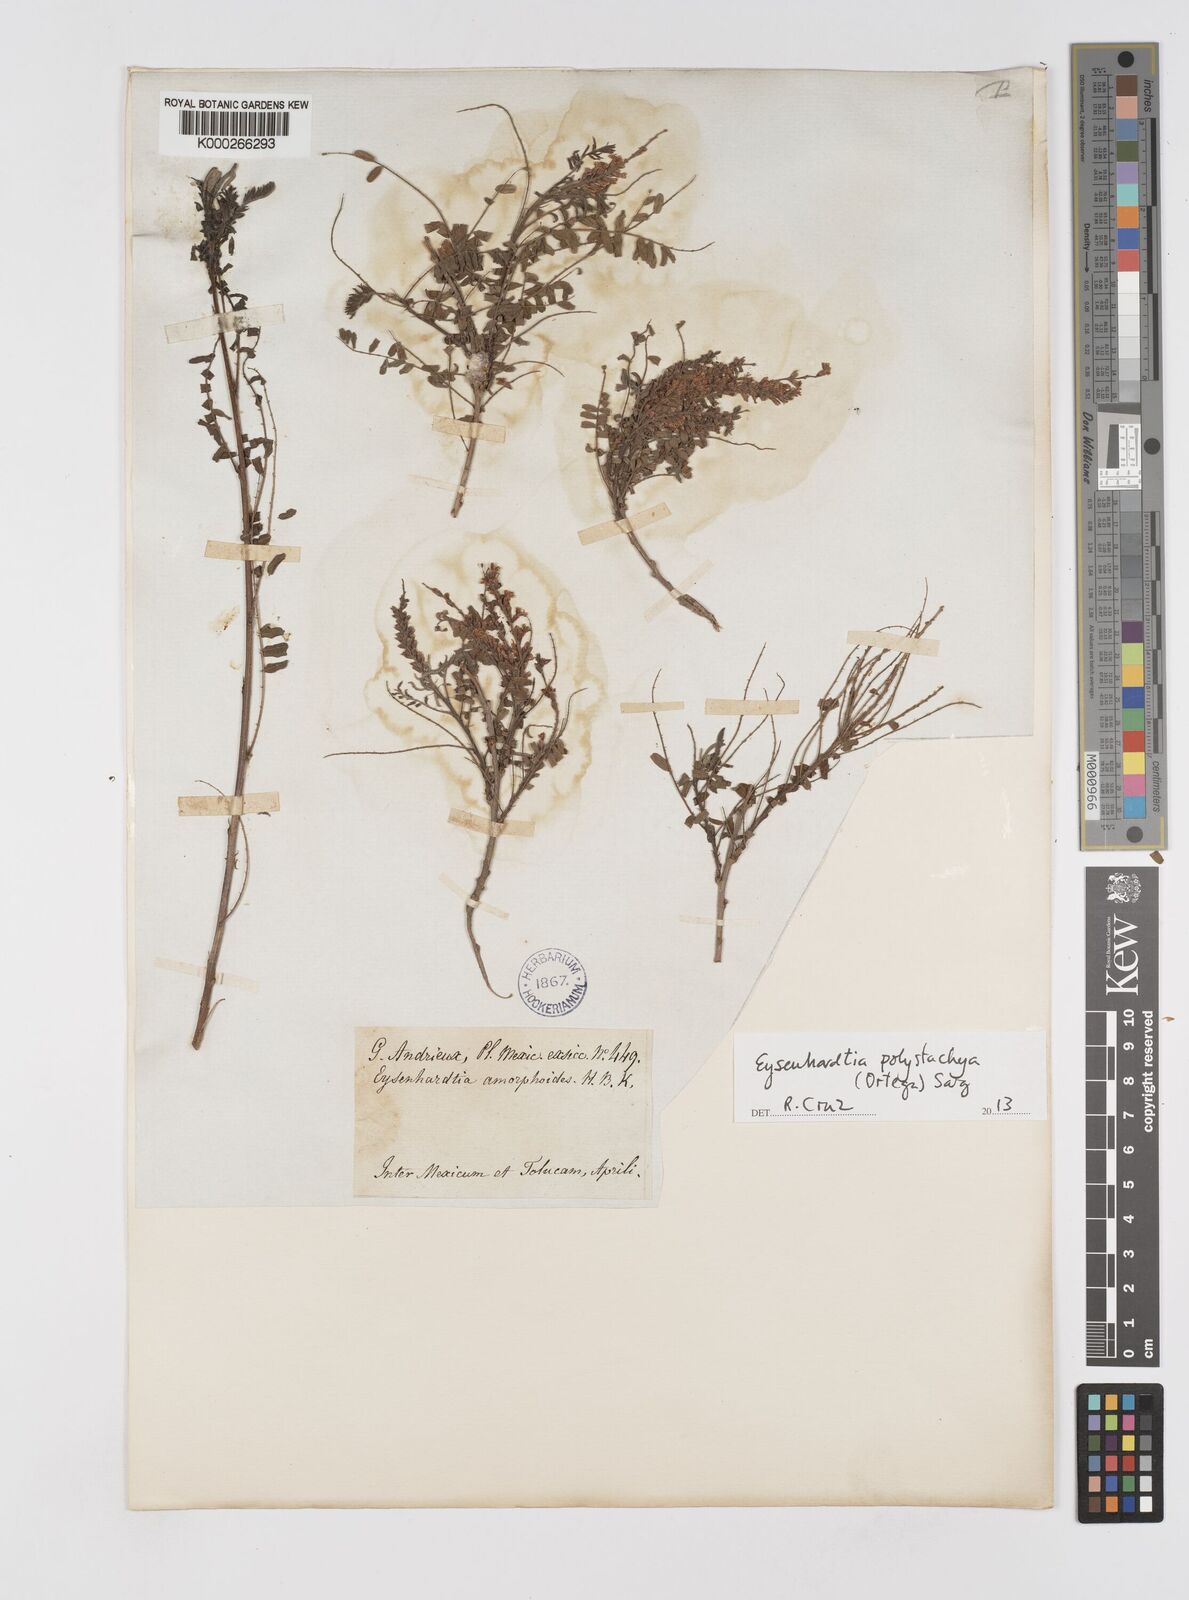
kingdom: Plantae
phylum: Tracheophyta
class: Magnoliopsida
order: Fabales
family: Fabaceae
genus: Eysenhardtia
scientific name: Eysenhardtia polystachya
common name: Kidneywood
